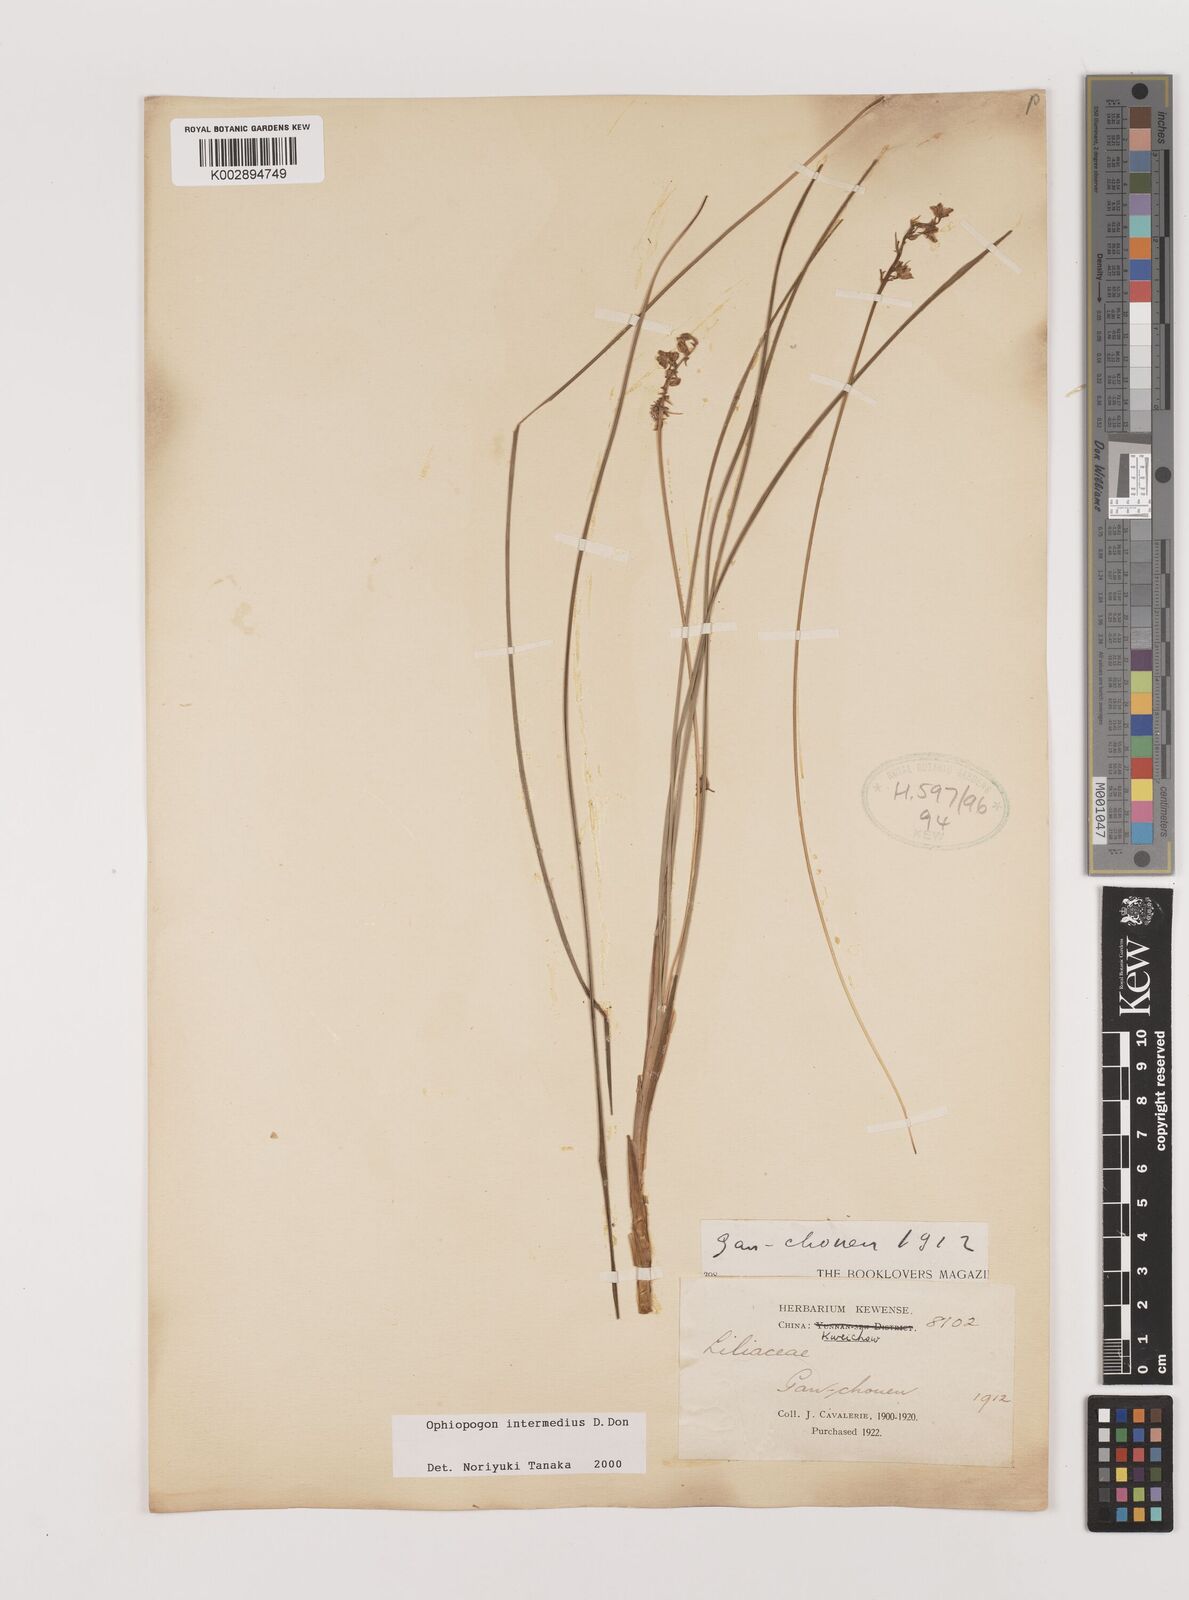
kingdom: Plantae
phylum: Tracheophyta
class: Liliopsida
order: Asparagales
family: Asparagaceae
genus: Ophiopogon
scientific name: Ophiopogon intermedius
